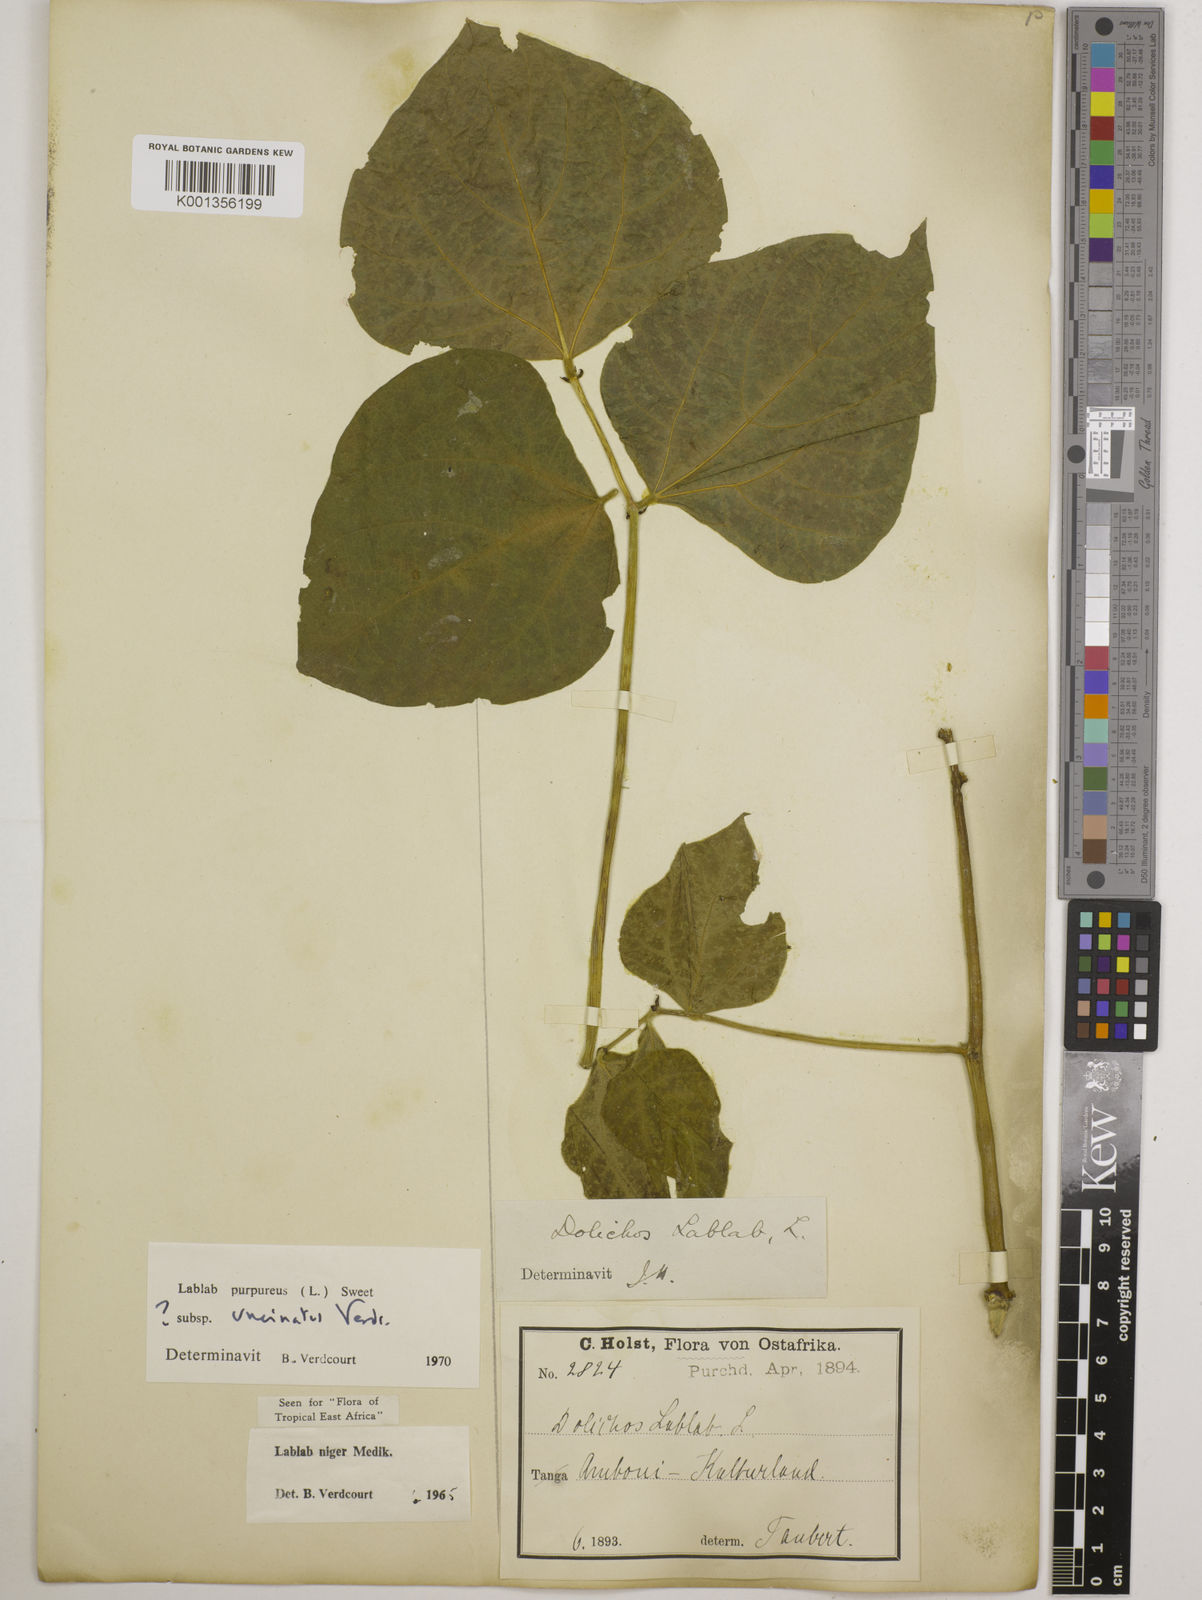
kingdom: Plantae
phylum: Tracheophyta
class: Magnoliopsida
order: Fabales
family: Fabaceae
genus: Lablab
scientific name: Lablab purpureus
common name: Lablab-bean
